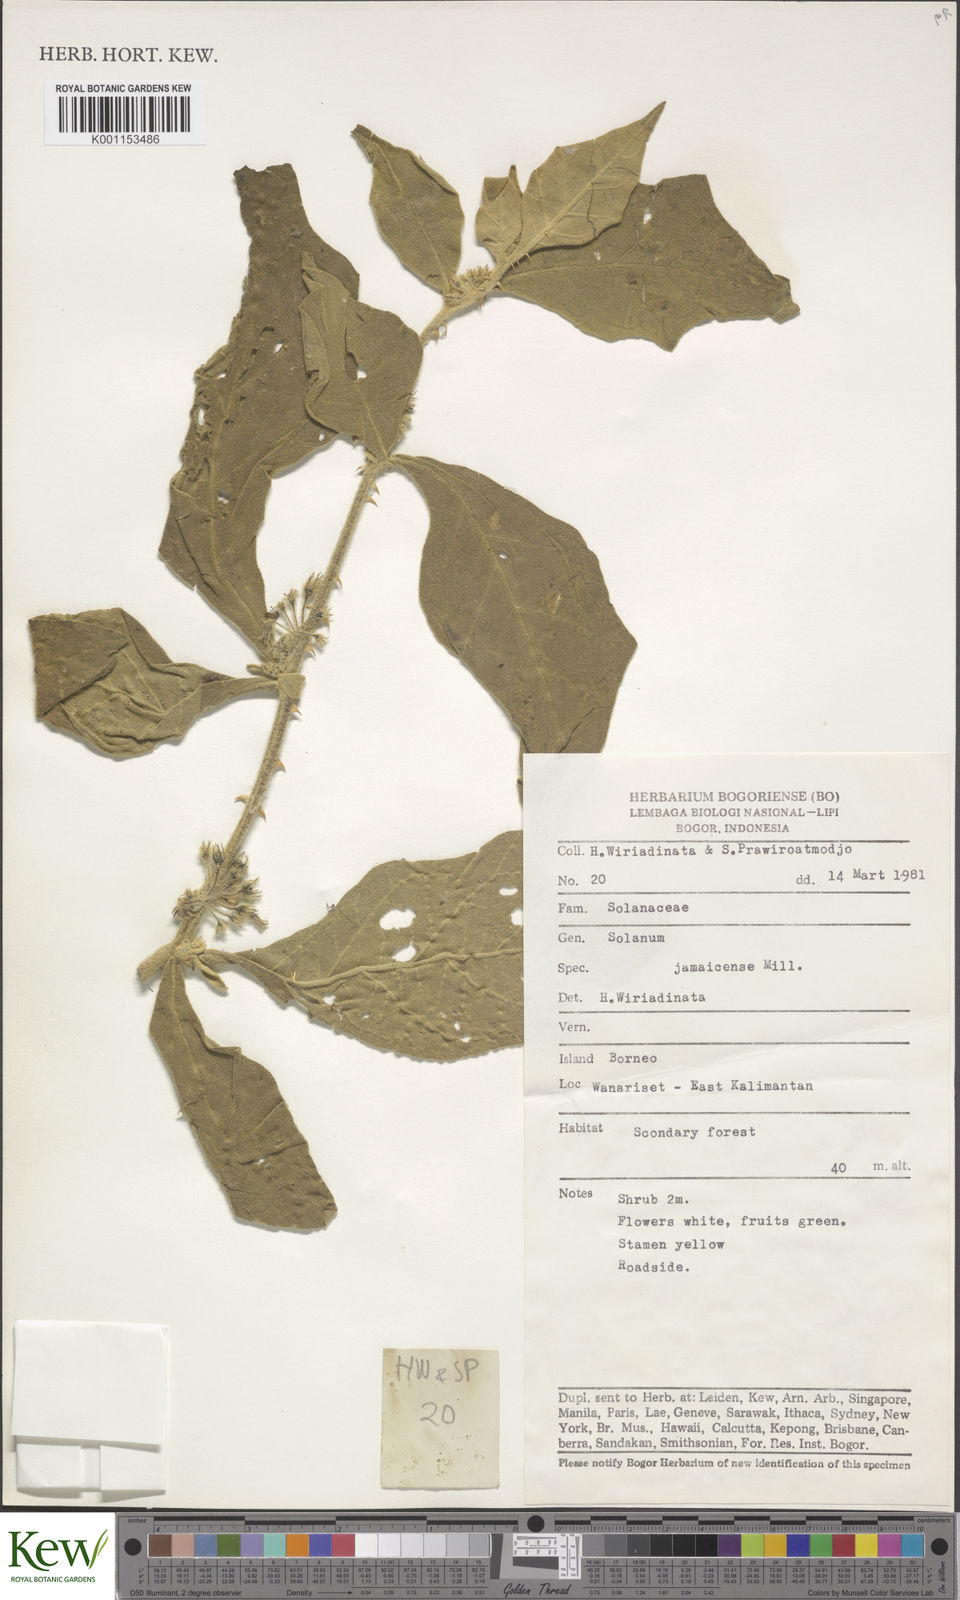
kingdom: Plantae
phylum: Tracheophyta
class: Magnoliopsida
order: Solanales
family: Solanaceae
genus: Solanum
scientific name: Solanum jamaicense
